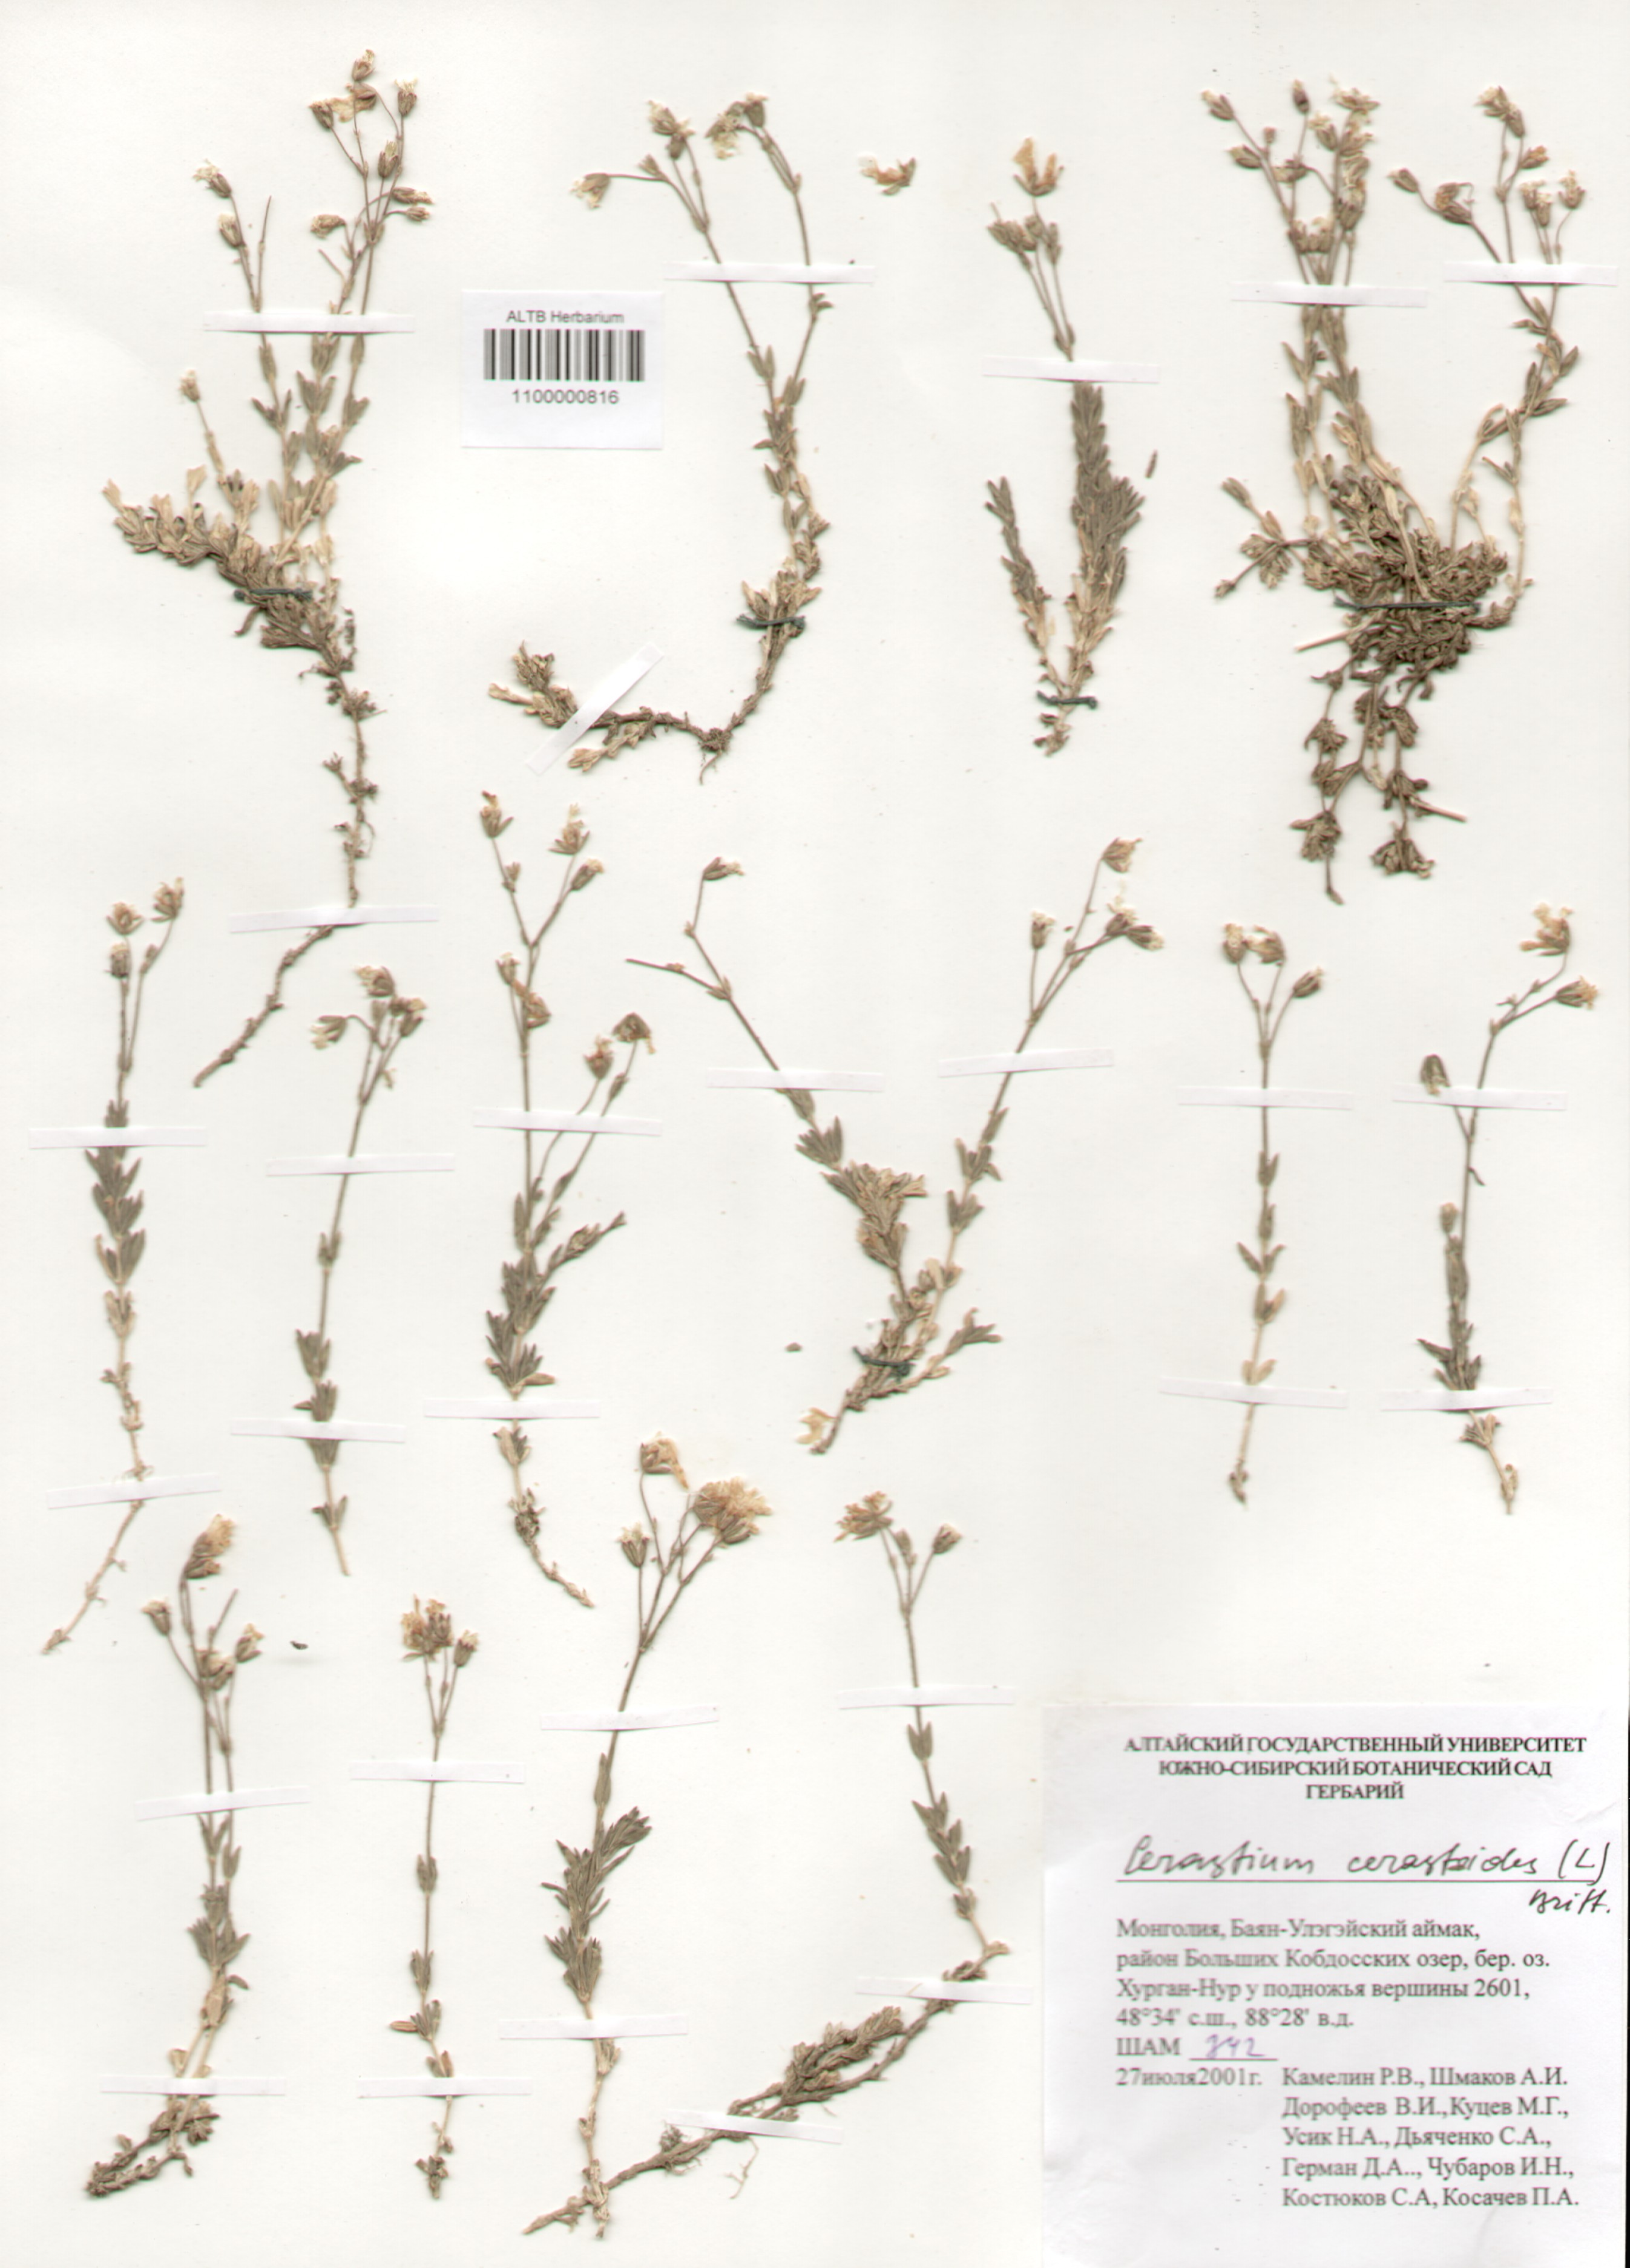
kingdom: Plantae
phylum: Tracheophyta
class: Magnoliopsida
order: Caryophyllales
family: Caryophyllaceae
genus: Cerastium
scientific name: Cerastium arvense
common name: Field mouse-ear
